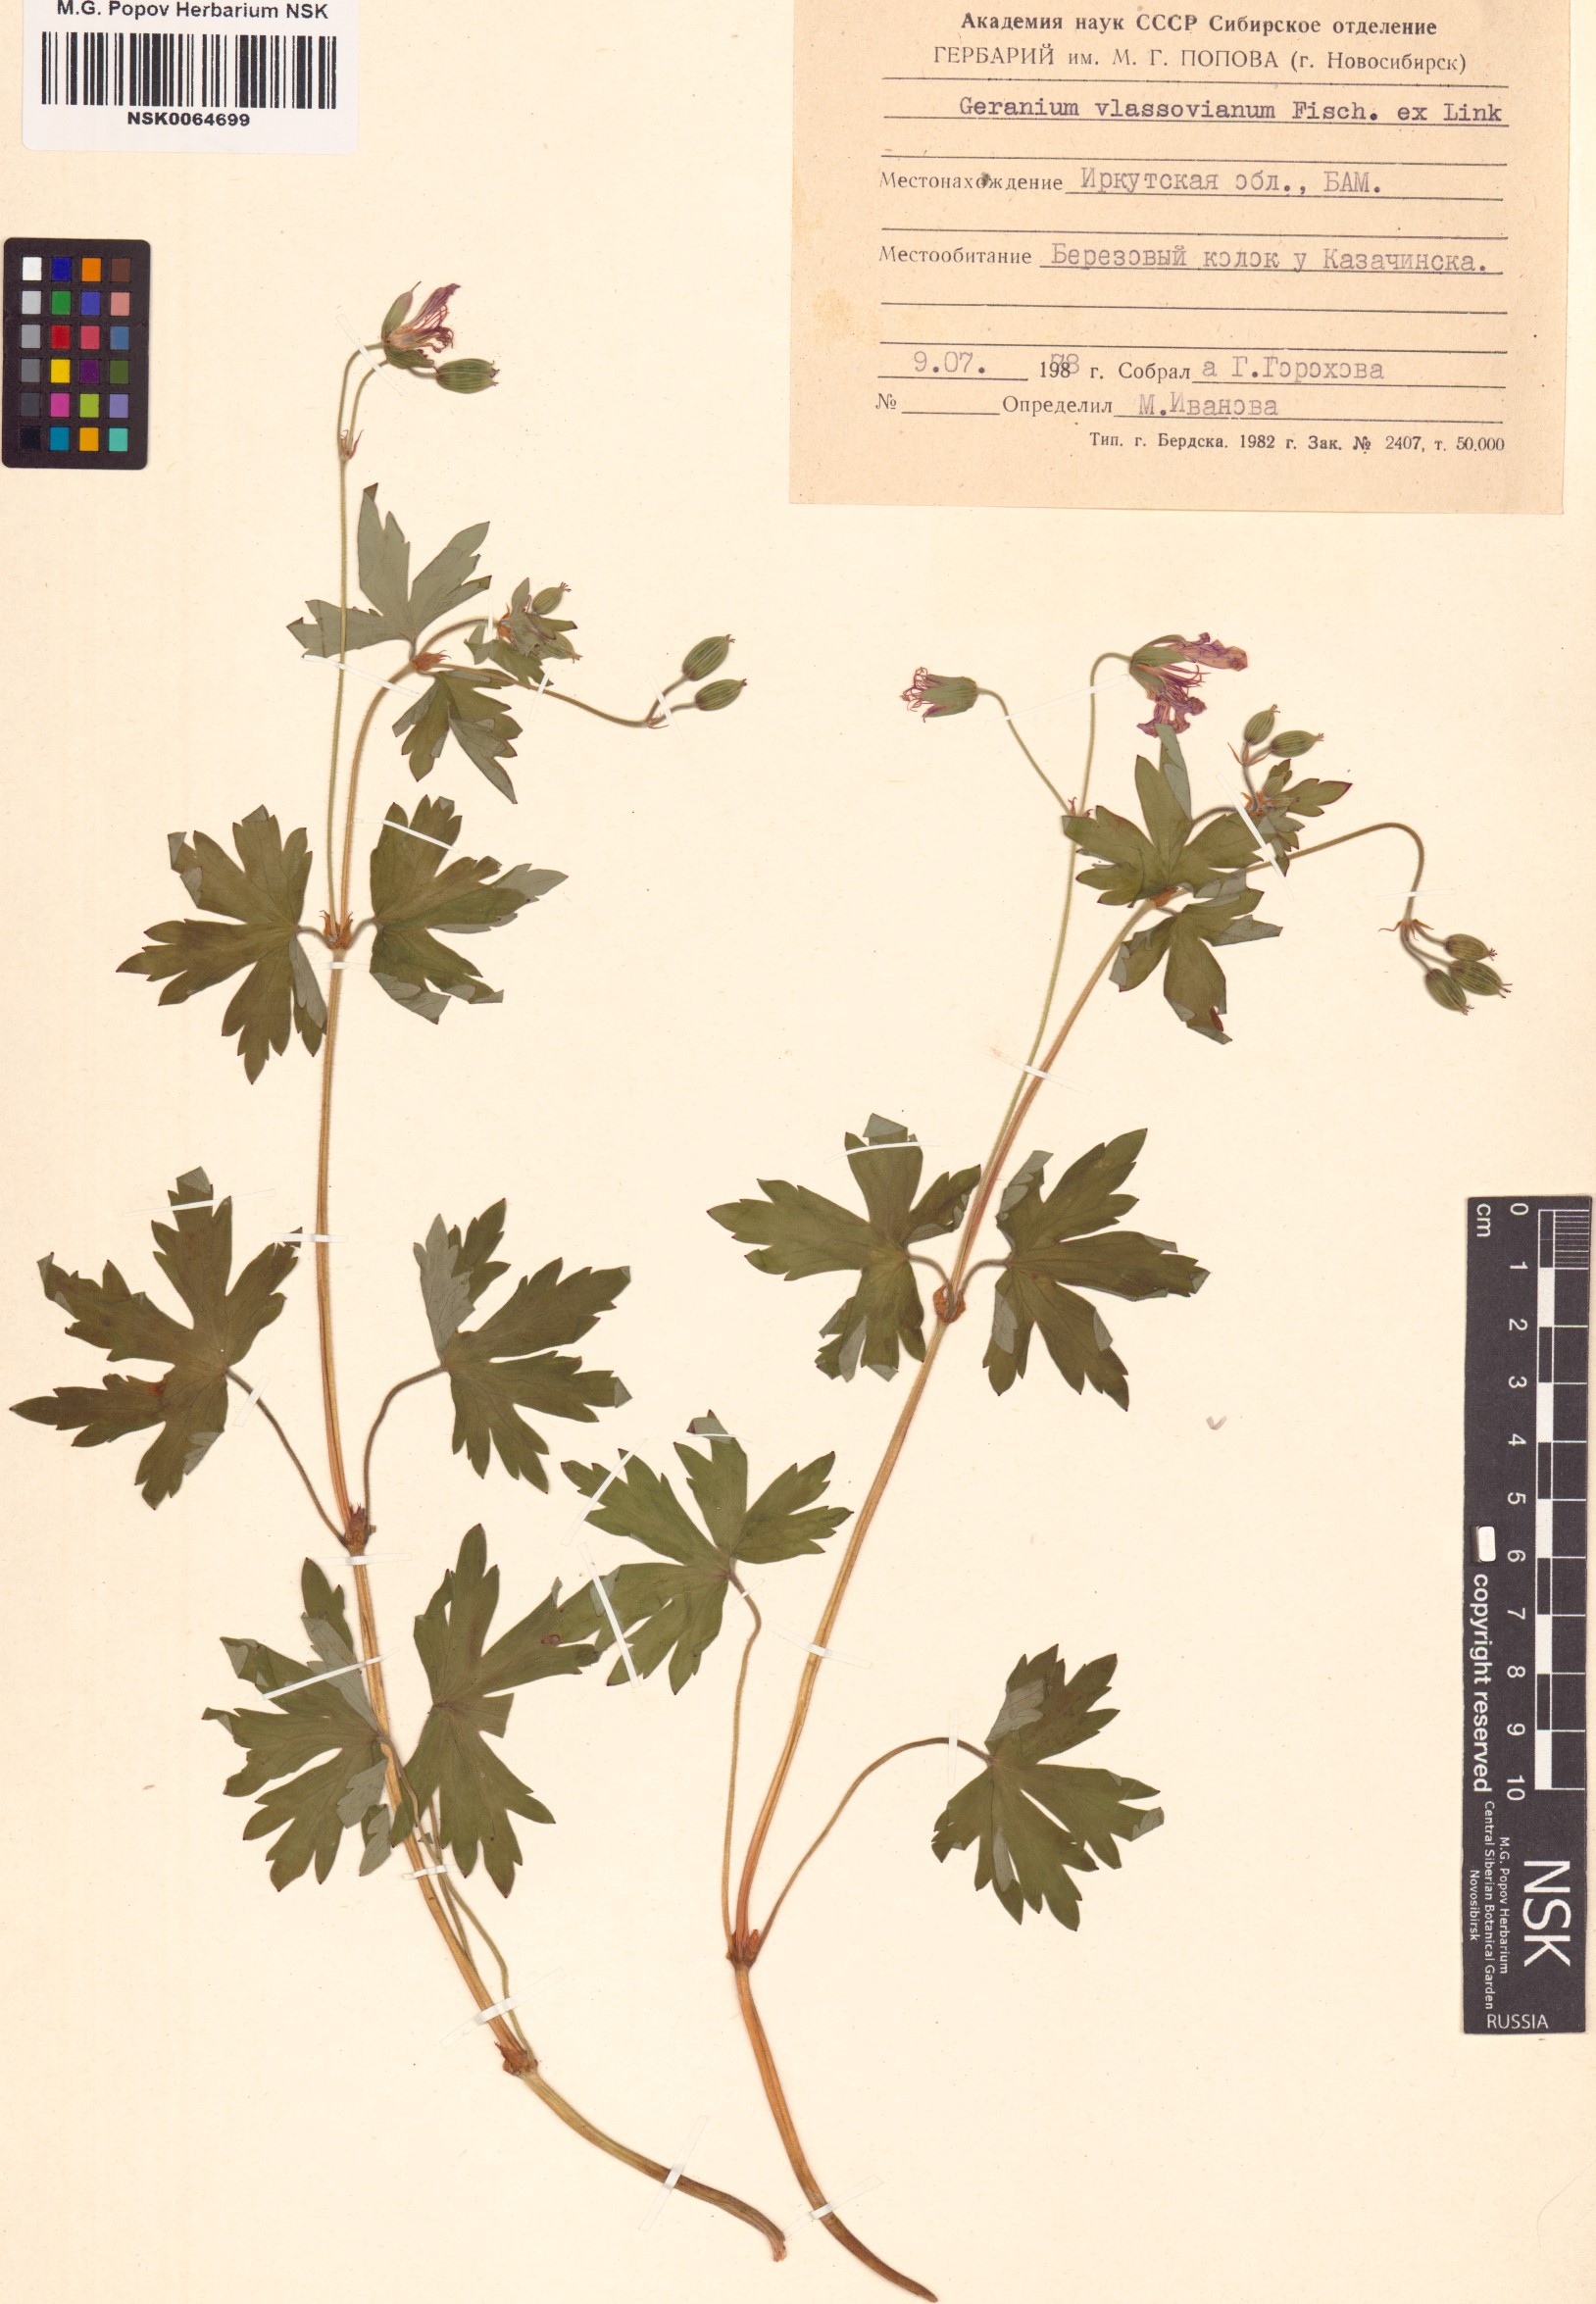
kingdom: Plantae
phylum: Tracheophyta
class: Magnoliopsida
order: Geraniales
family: Geraniaceae
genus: Geranium
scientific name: Geranium wlassovianum
